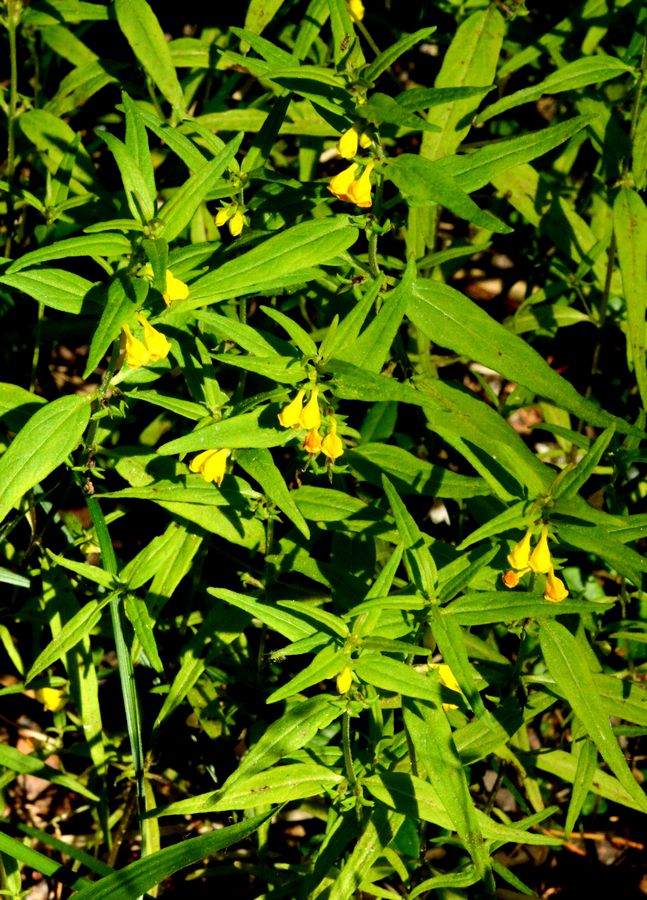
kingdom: Plantae
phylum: Tracheophyta
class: Magnoliopsida
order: Lamiales
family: Orobanchaceae
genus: Melampyrum
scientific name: Melampyrum sylvaticum
